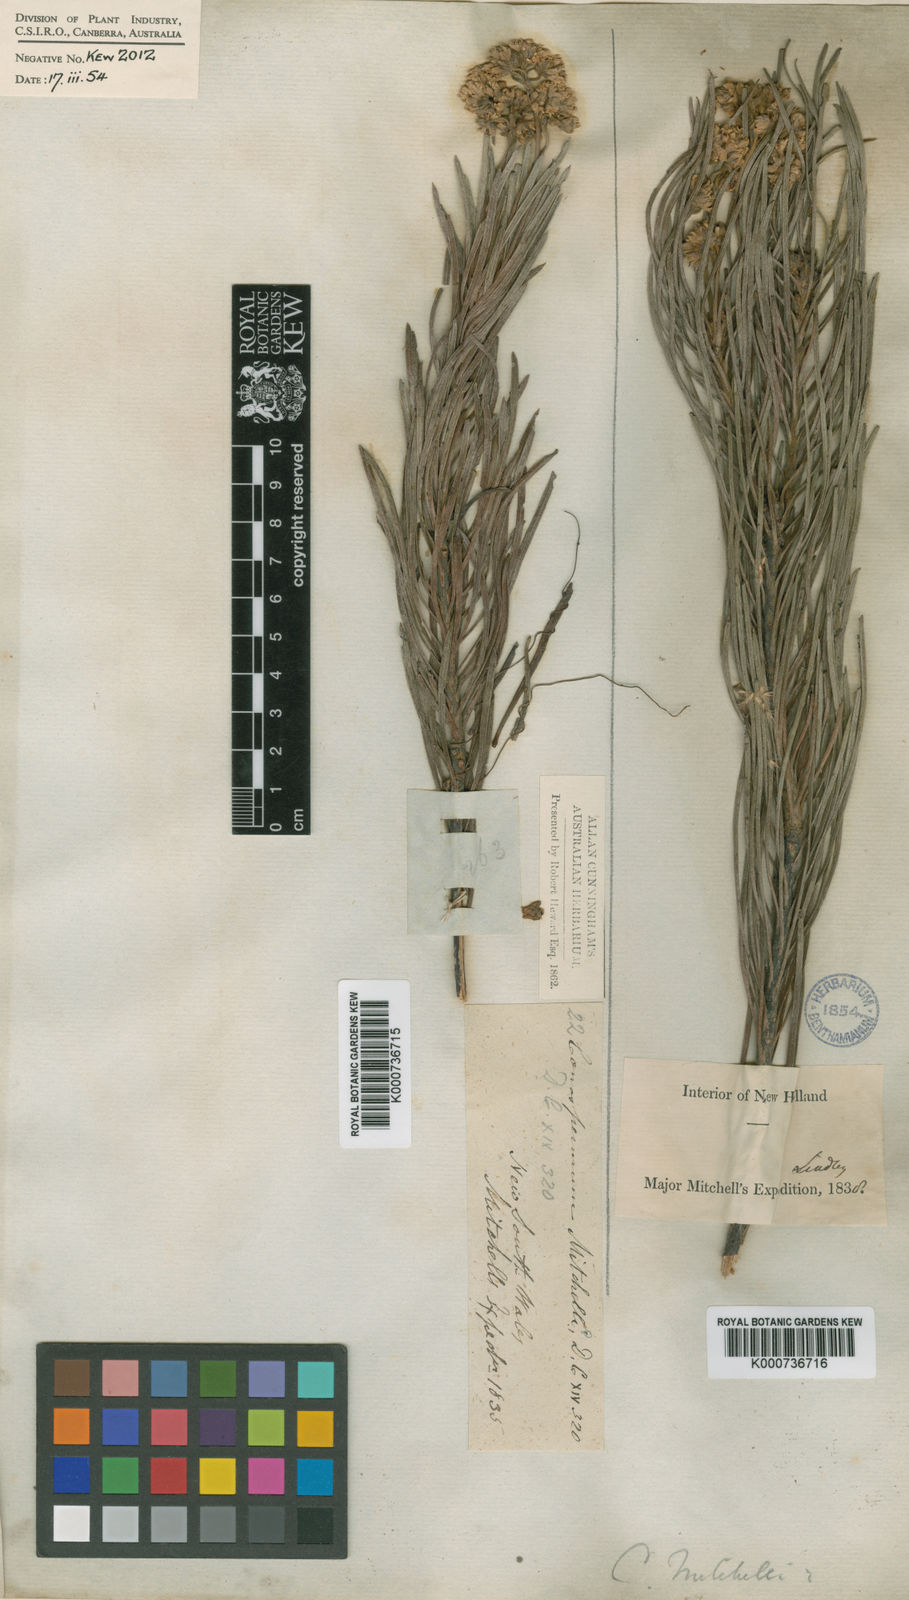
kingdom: Plantae
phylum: Tracheophyta
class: Magnoliopsida
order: Proteales
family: Proteaceae
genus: Conospermum
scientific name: Conospermum mitchellii
